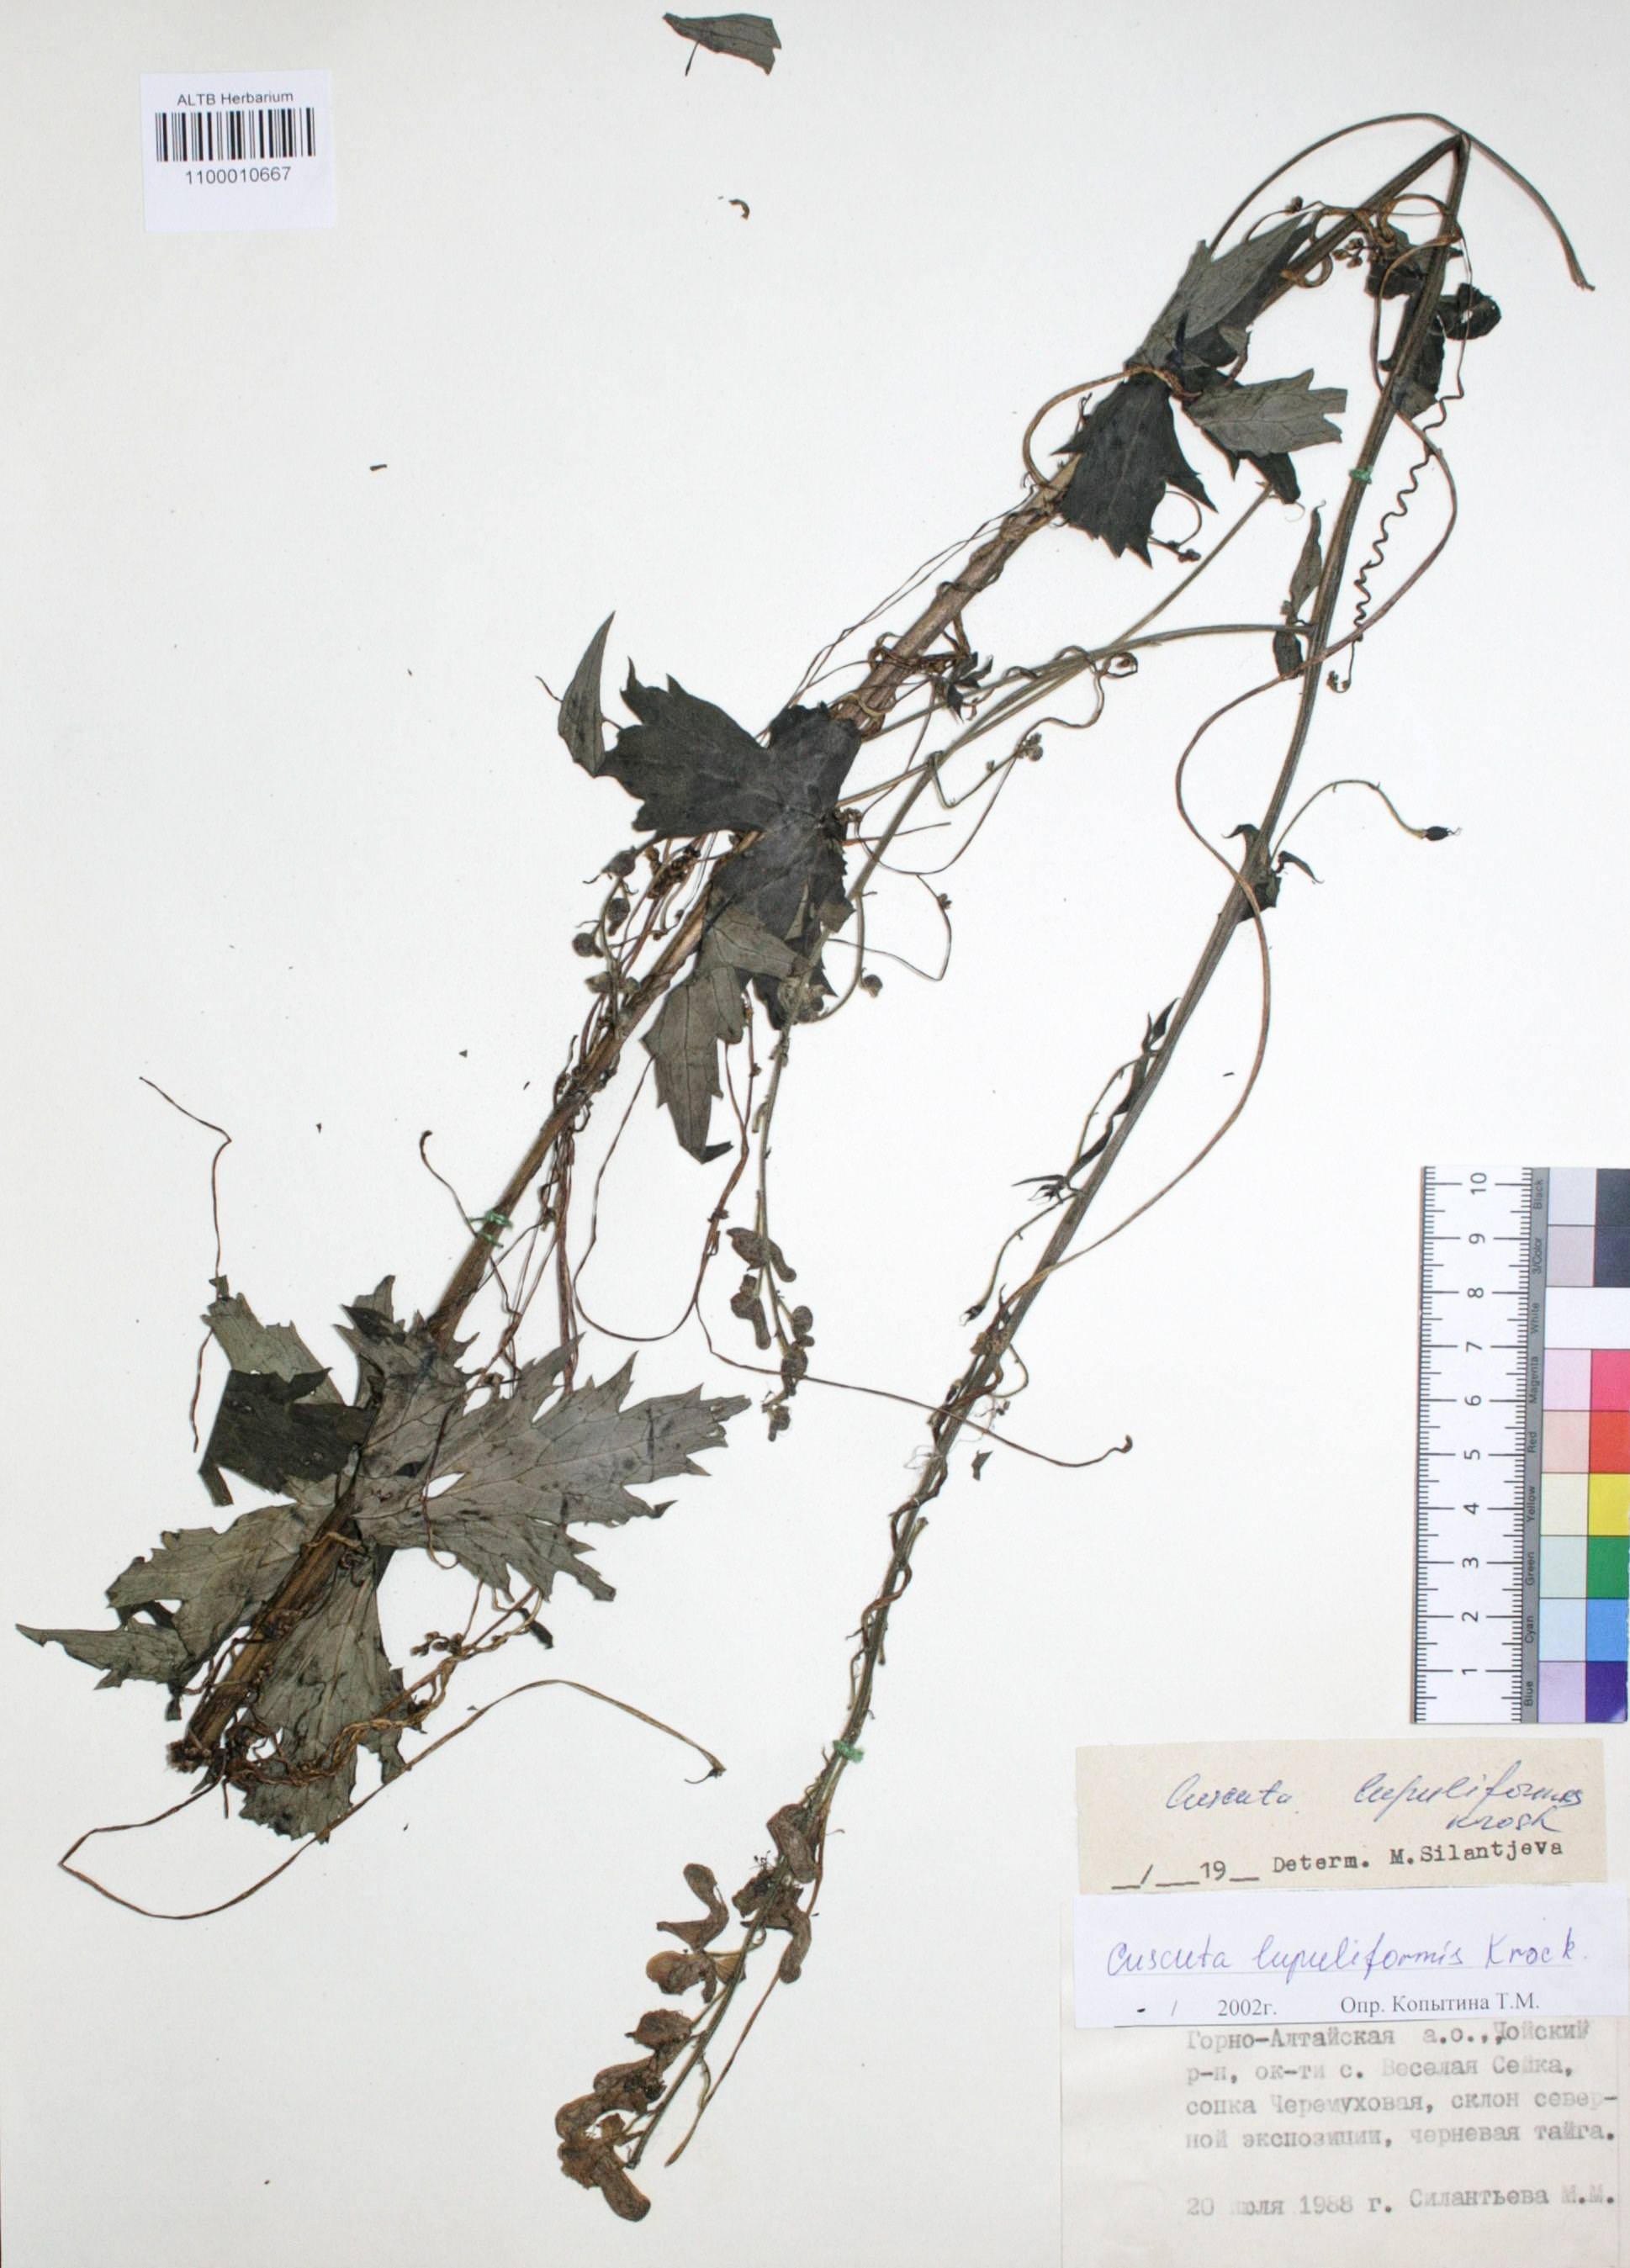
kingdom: Plantae
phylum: Tracheophyta
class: Magnoliopsida
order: Solanales
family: Convolvulaceae
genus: Cuscuta
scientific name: Cuscuta lupuliformis
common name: Hop dodder
